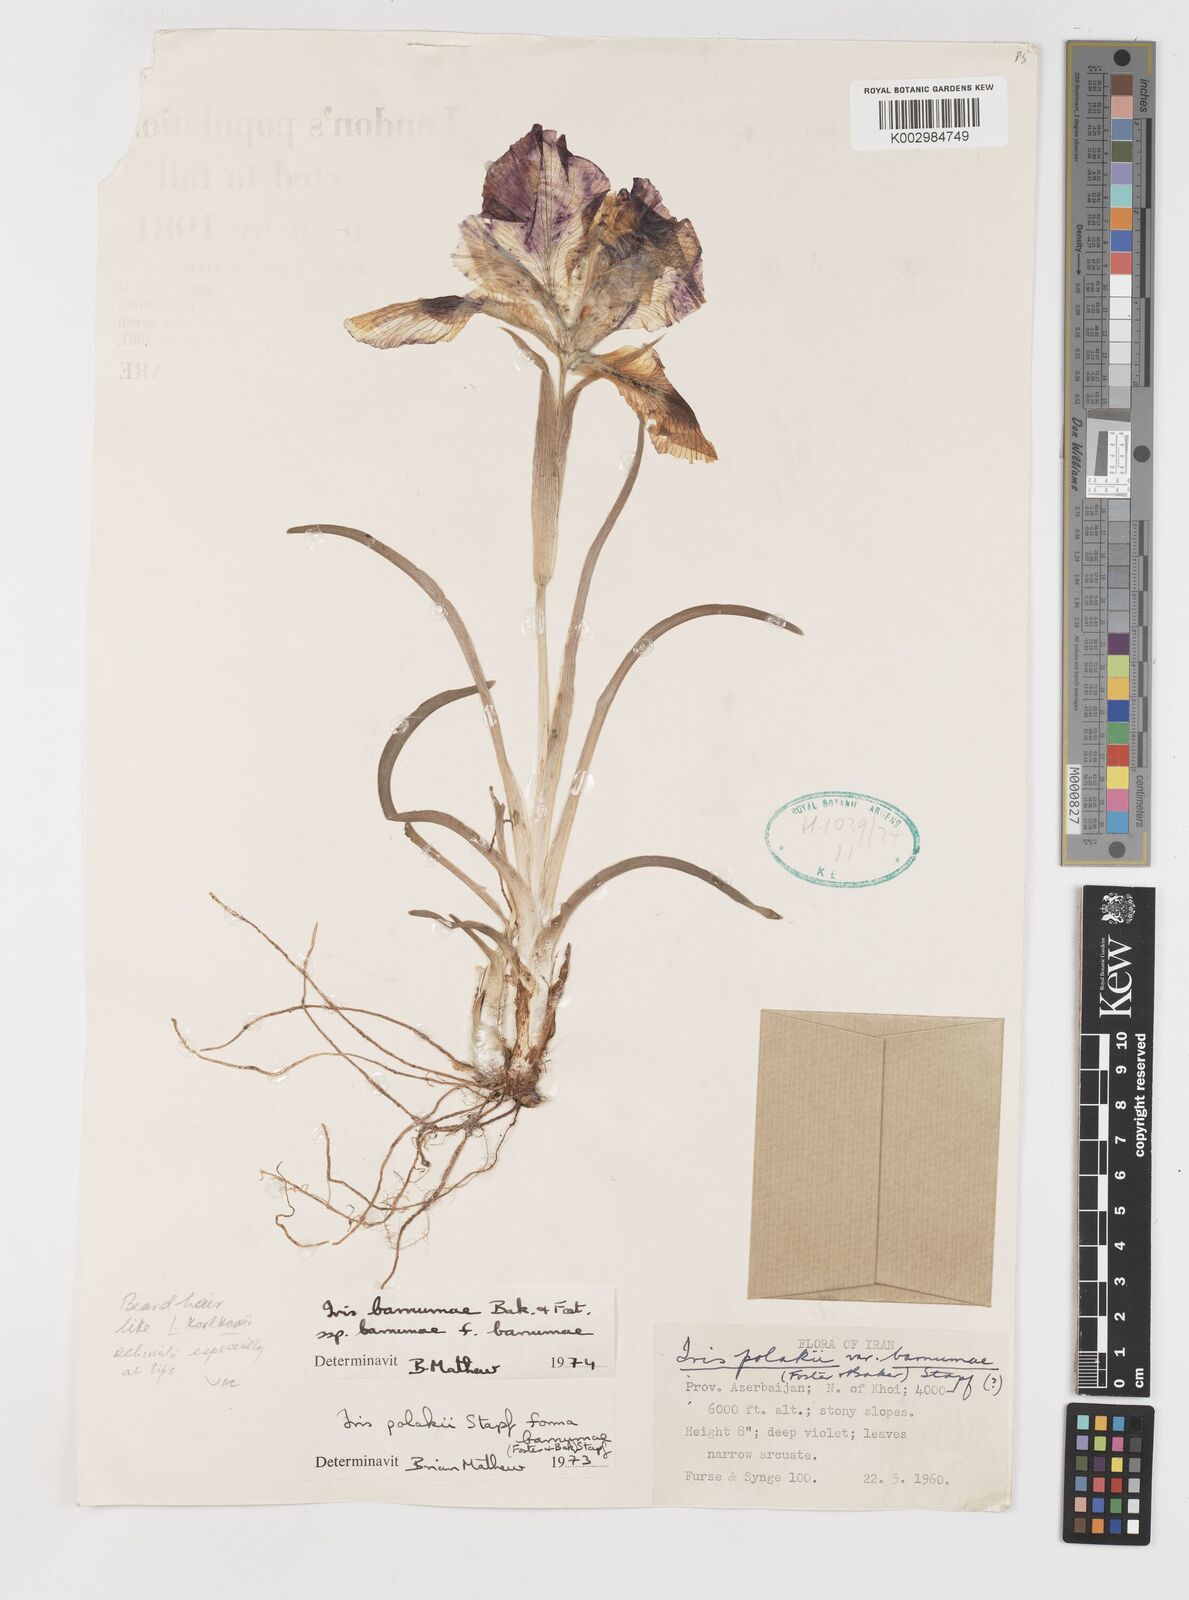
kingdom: Plantae
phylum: Tracheophyta
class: Liliopsida
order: Asparagales
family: Iridaceae
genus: Iris
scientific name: Iris barnumiae
